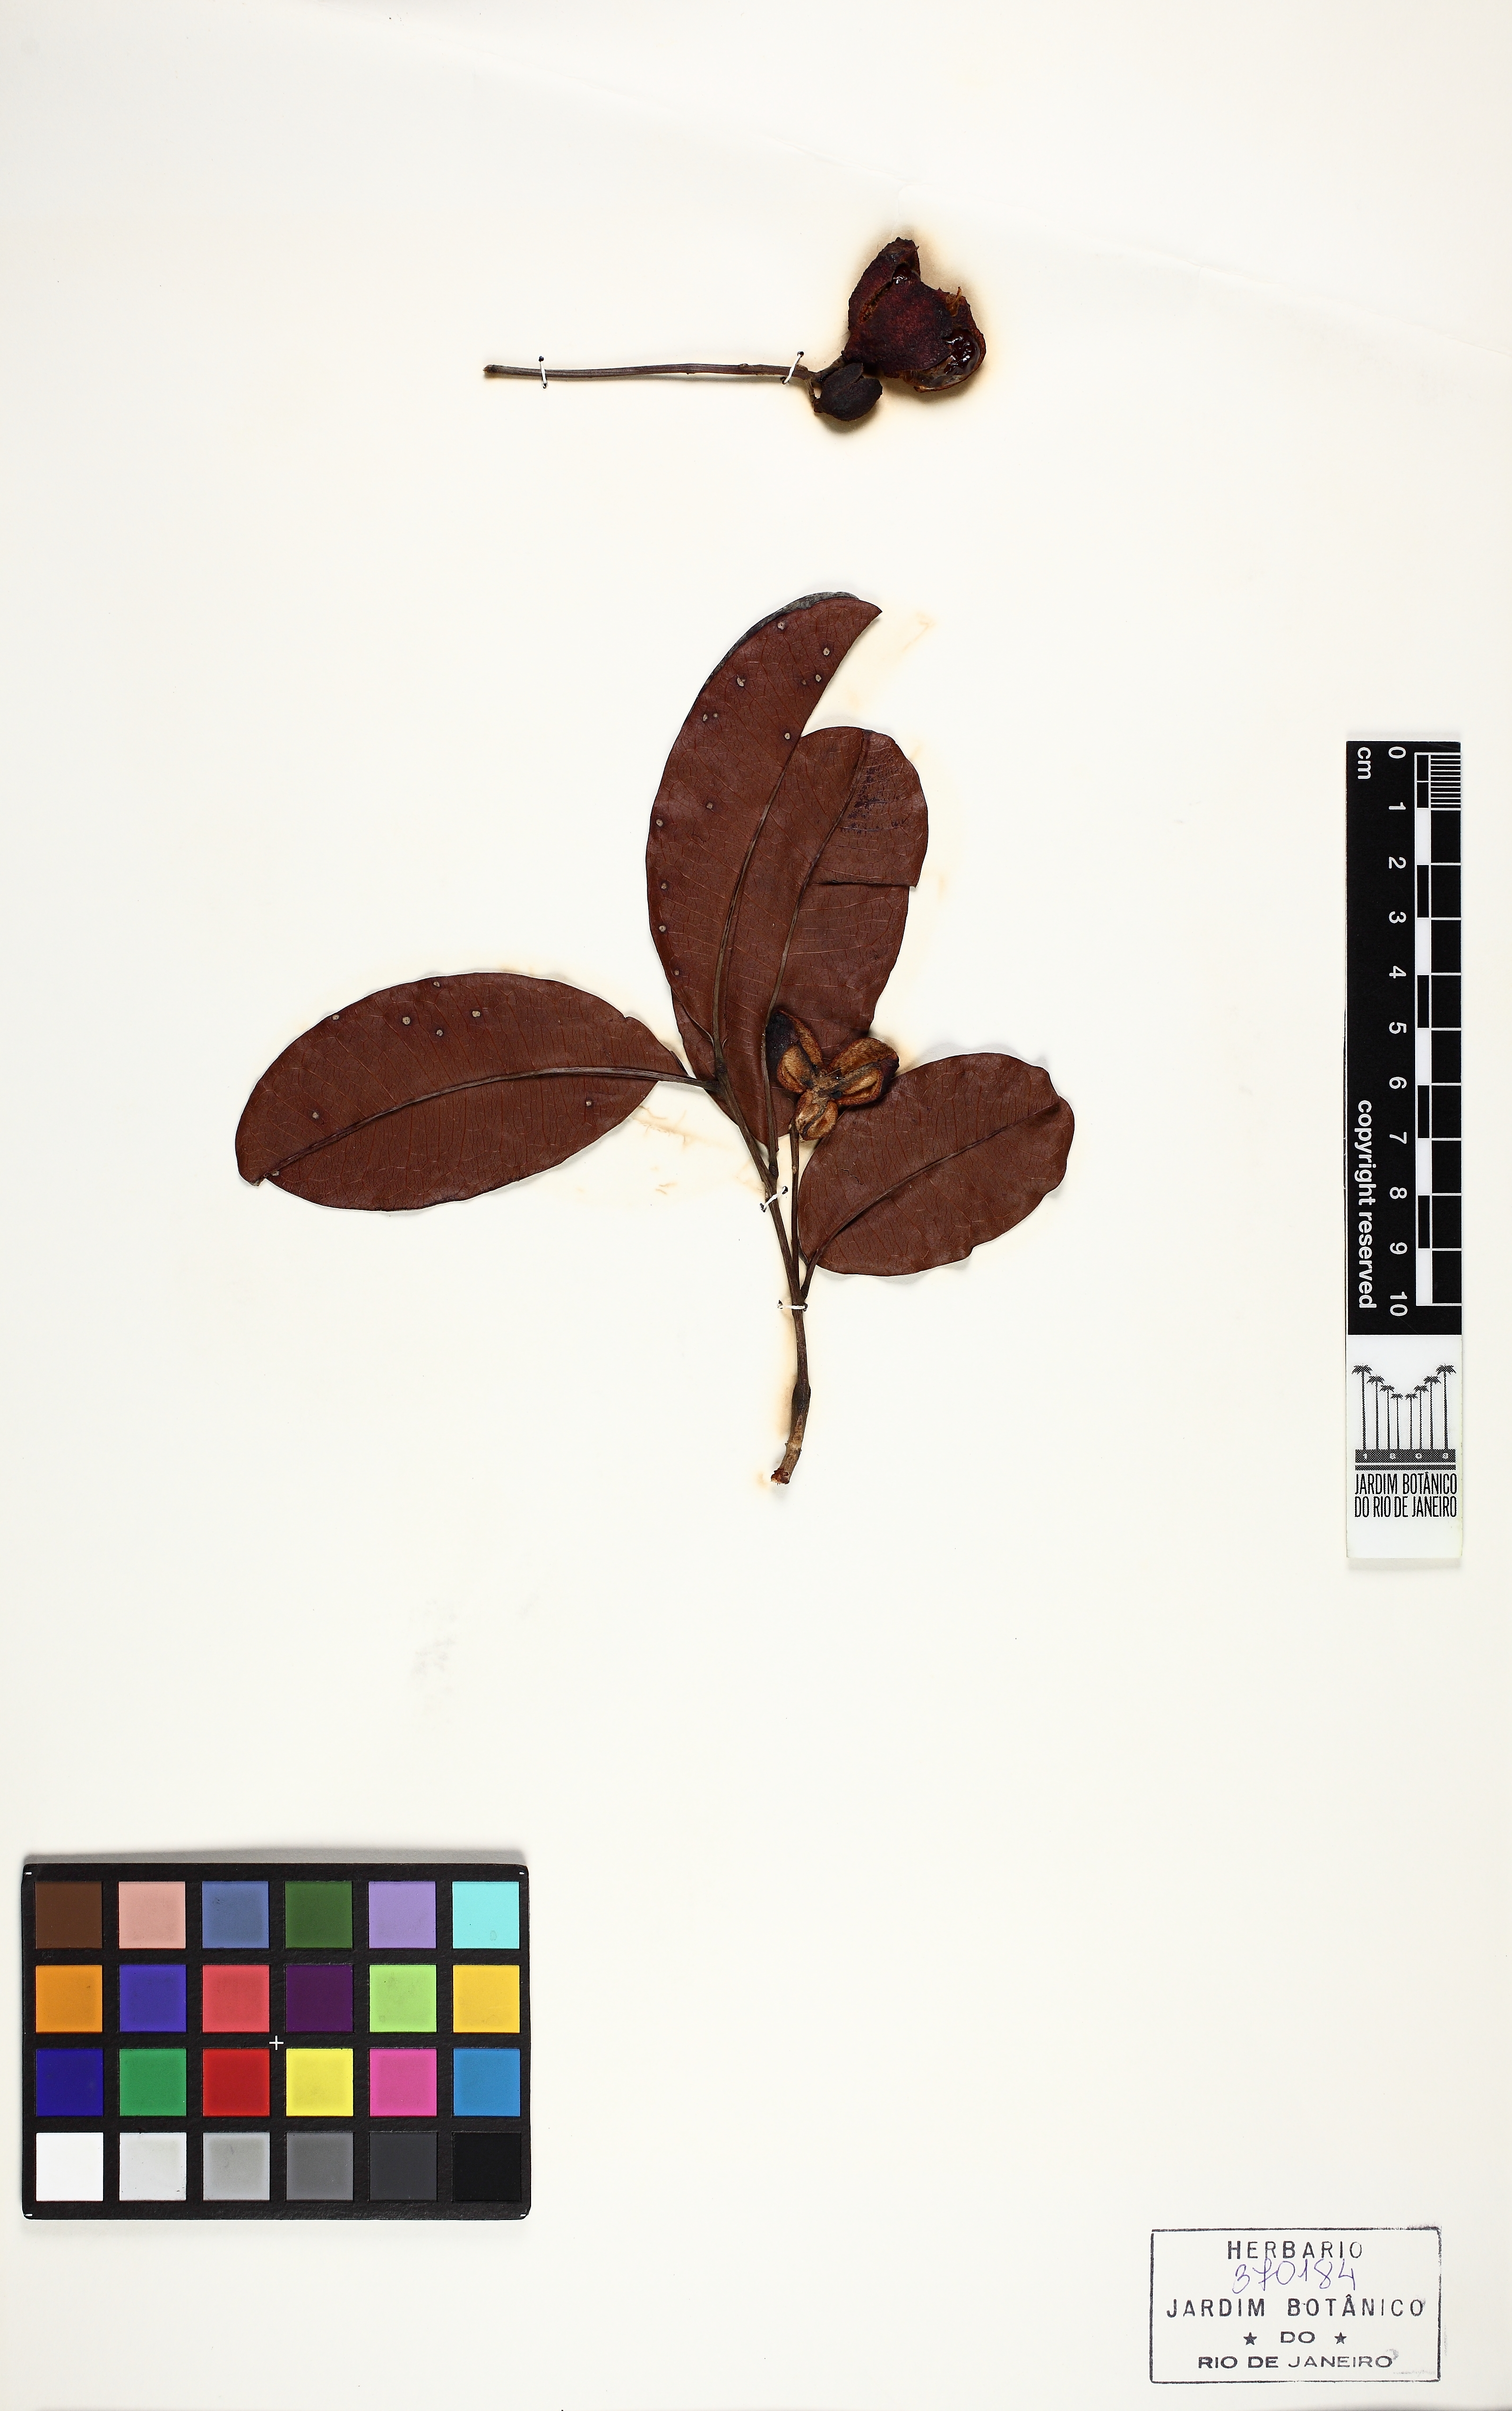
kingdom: Plantae
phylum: Tracheophyta
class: Magnoliopsida
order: Sapindales
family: Sapindaceae
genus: Matayba
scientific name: Matayba discolor
